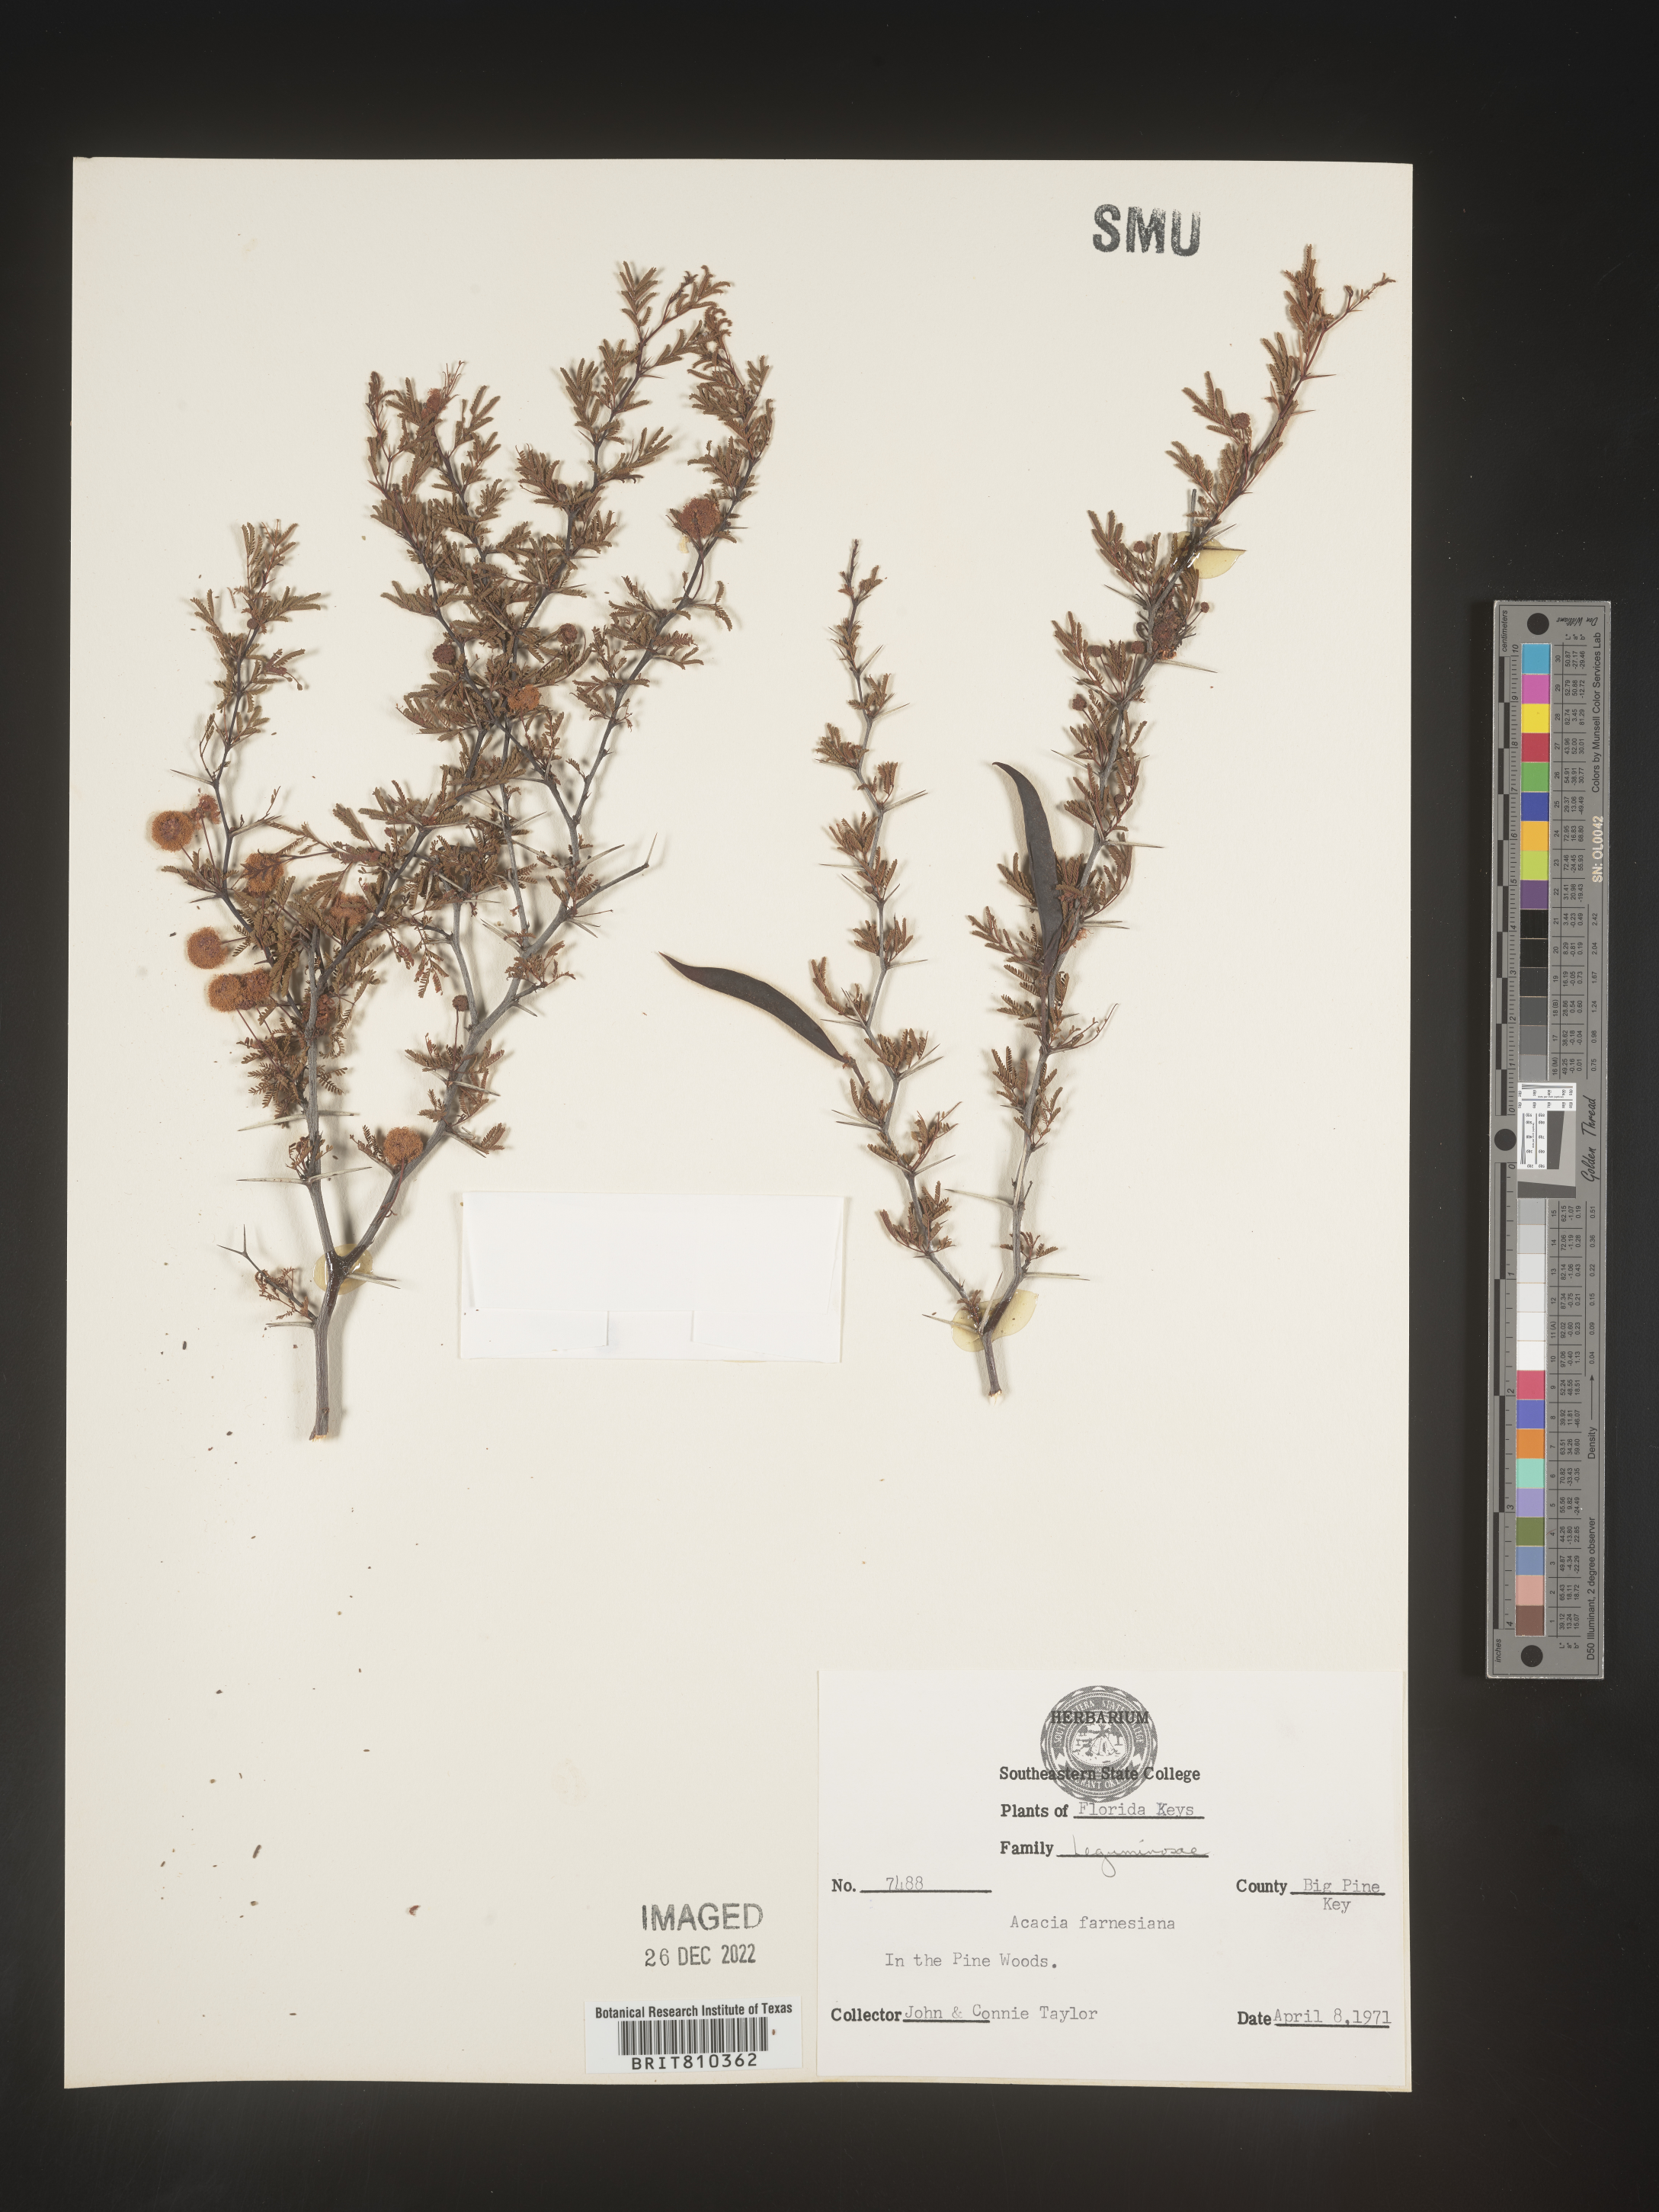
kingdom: Plantae
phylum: Tracheophyta
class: Magnoliopsida
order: Fabales
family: Fabaceae
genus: Acacia
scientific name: Acacia
